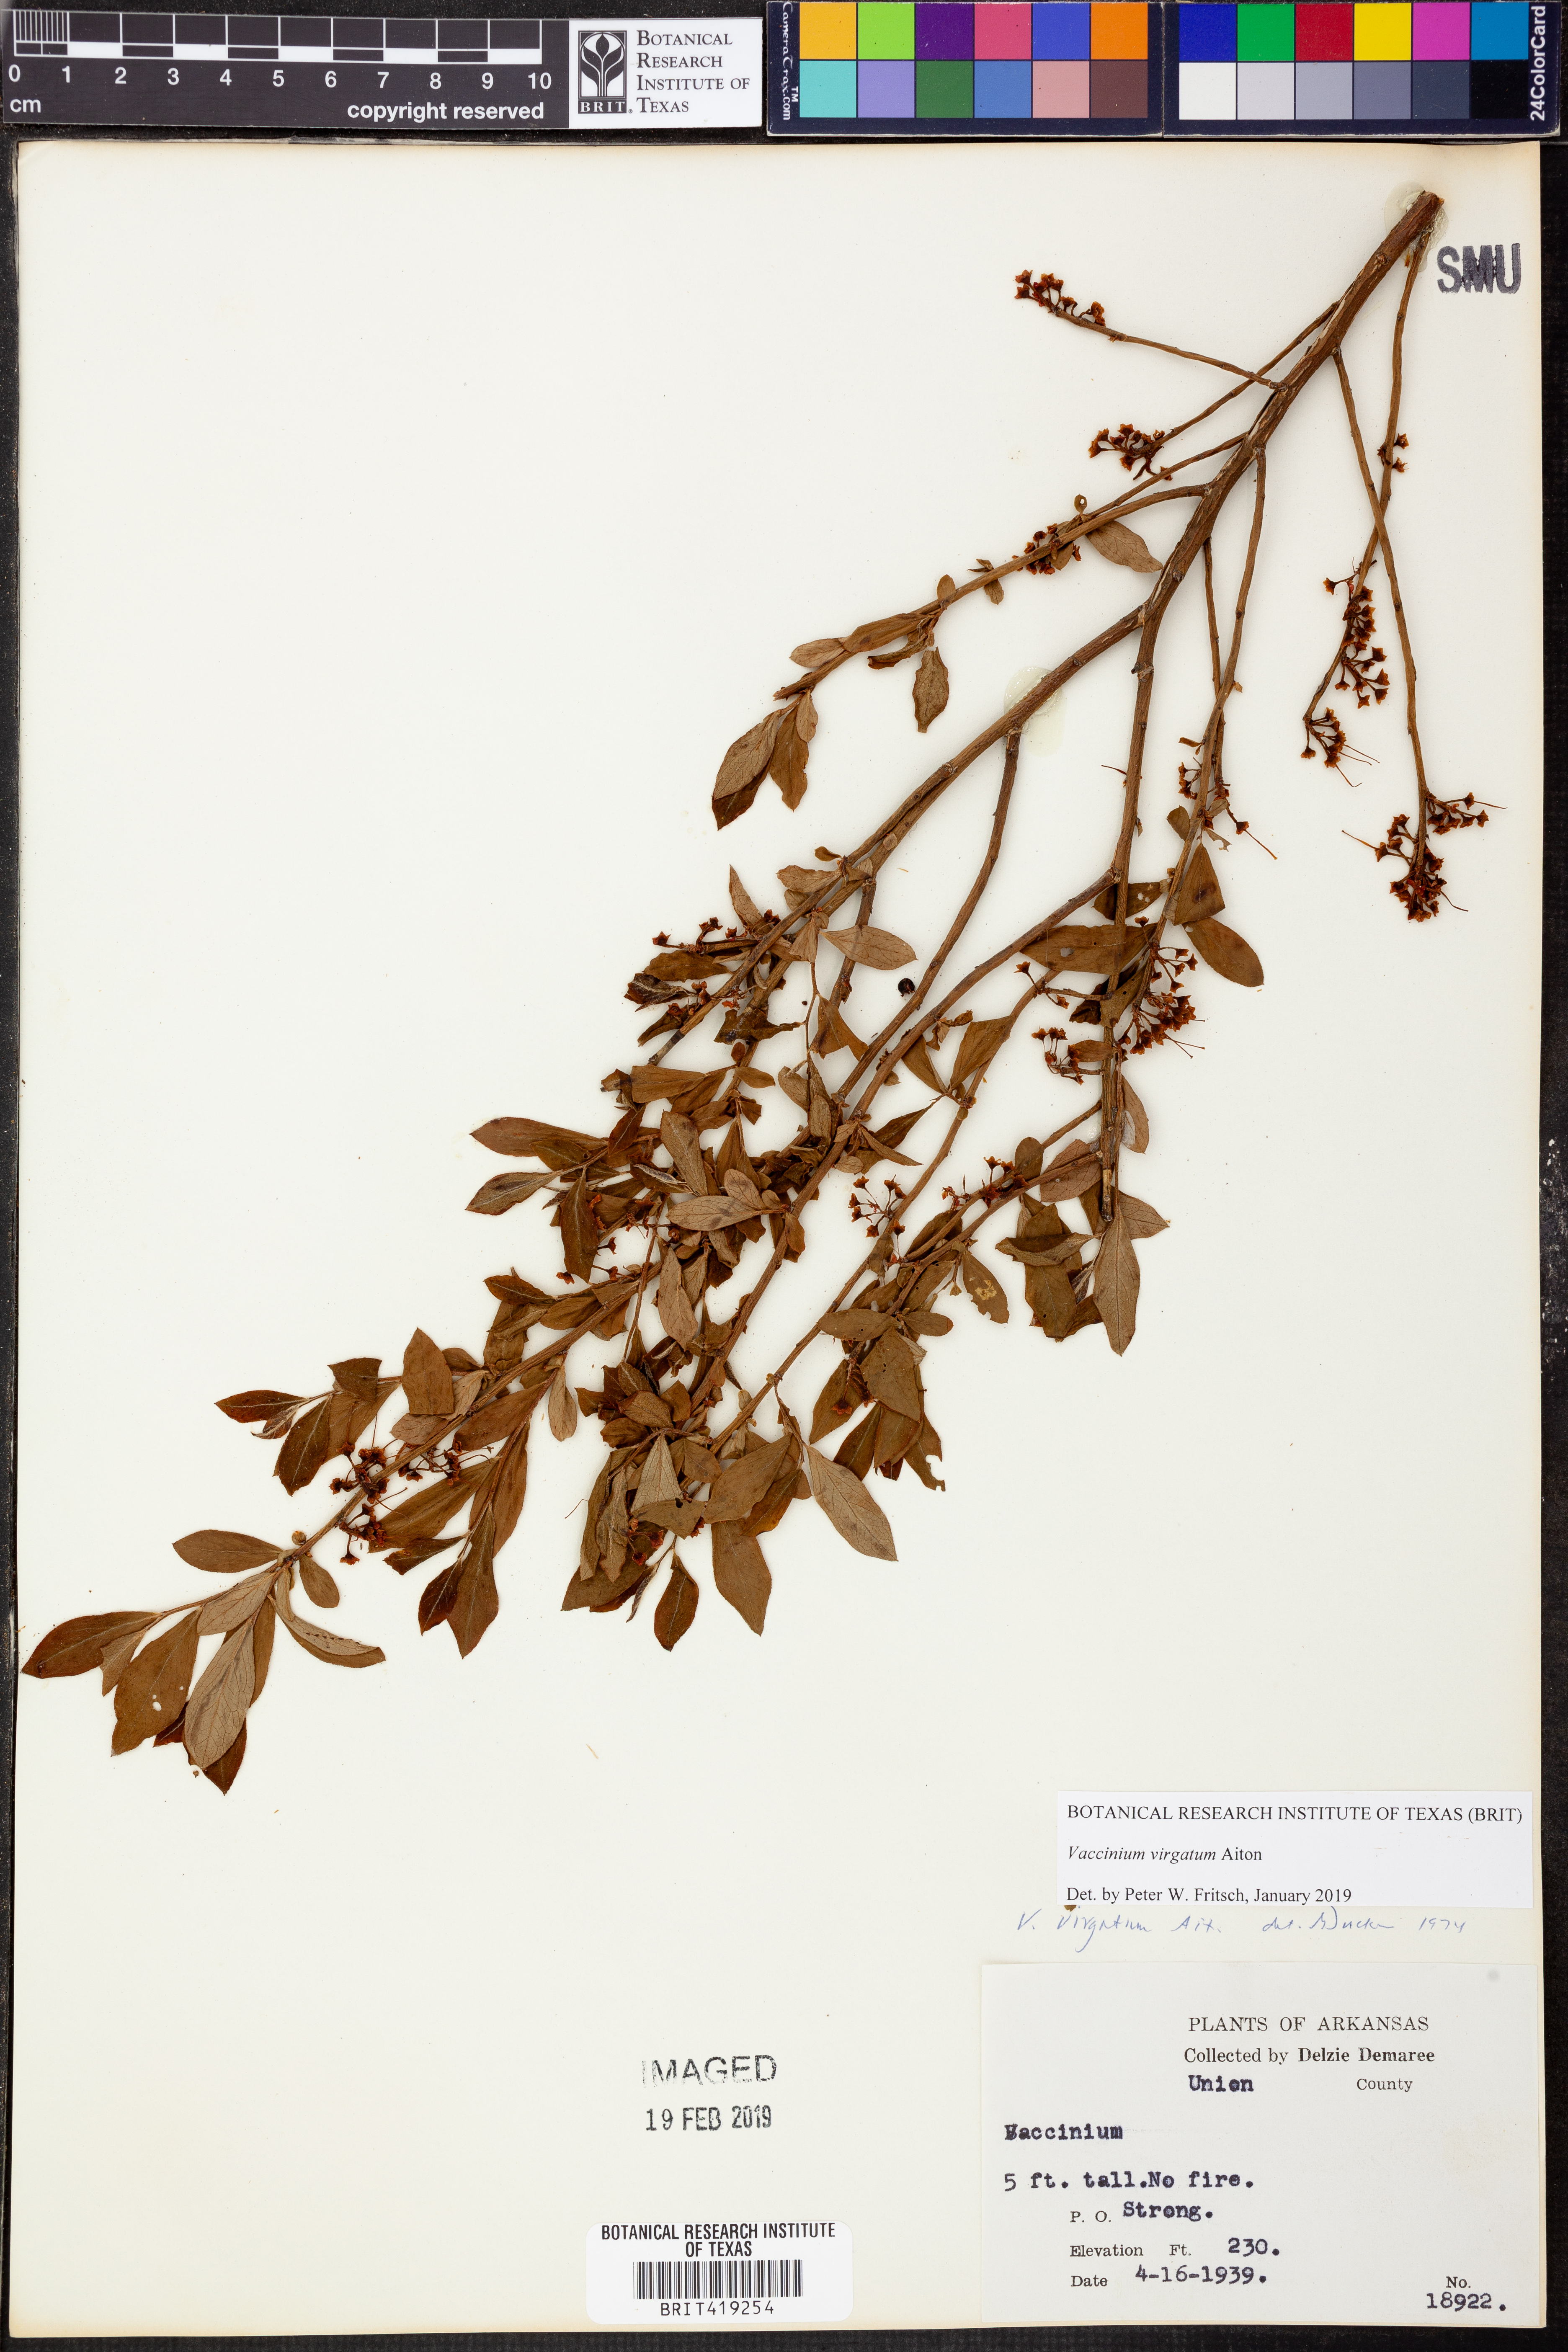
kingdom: Plantae
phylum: Tracheophyta
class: Magnoliopsida
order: Ericales
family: Ericaceae
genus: Vaccinium
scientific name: Vaccinium corymbosum
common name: Blueberry
